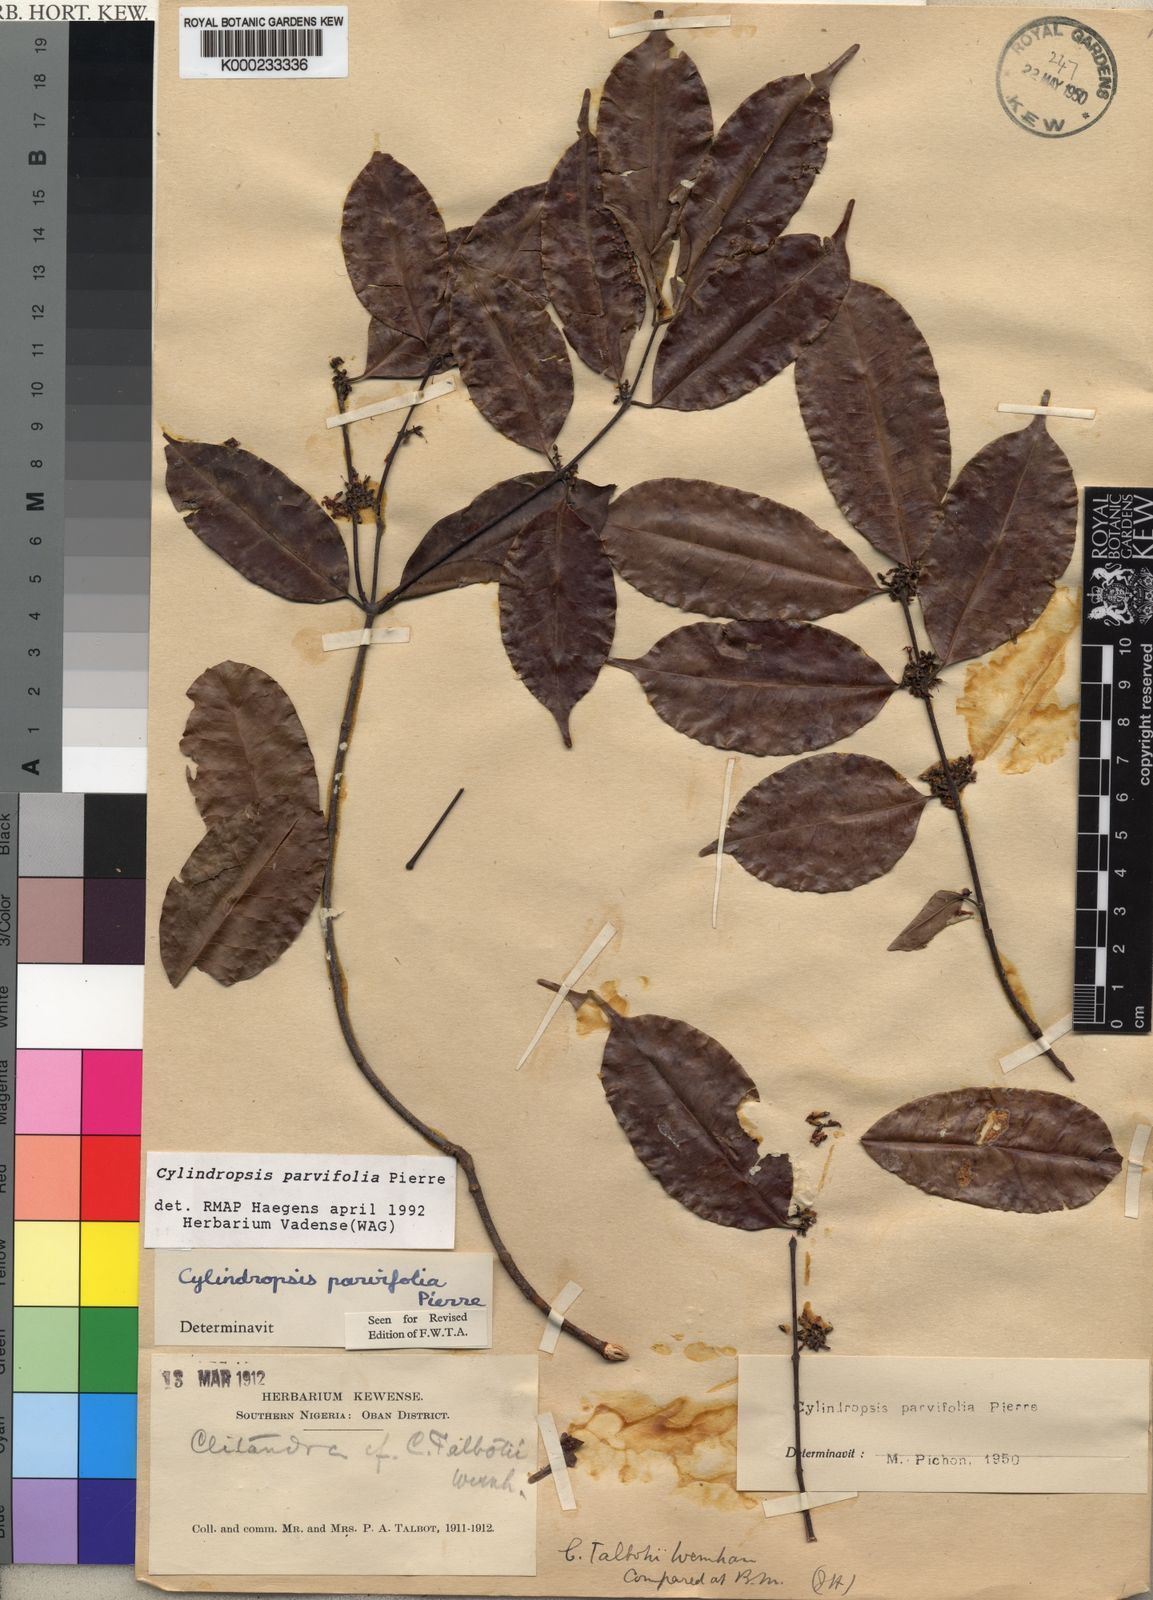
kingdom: Plantae
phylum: Tracheophyta
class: Magnoliopsida
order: Gentianales
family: Apocynaceae
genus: Cylindropsis
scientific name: Cylindropsis parvifolia
